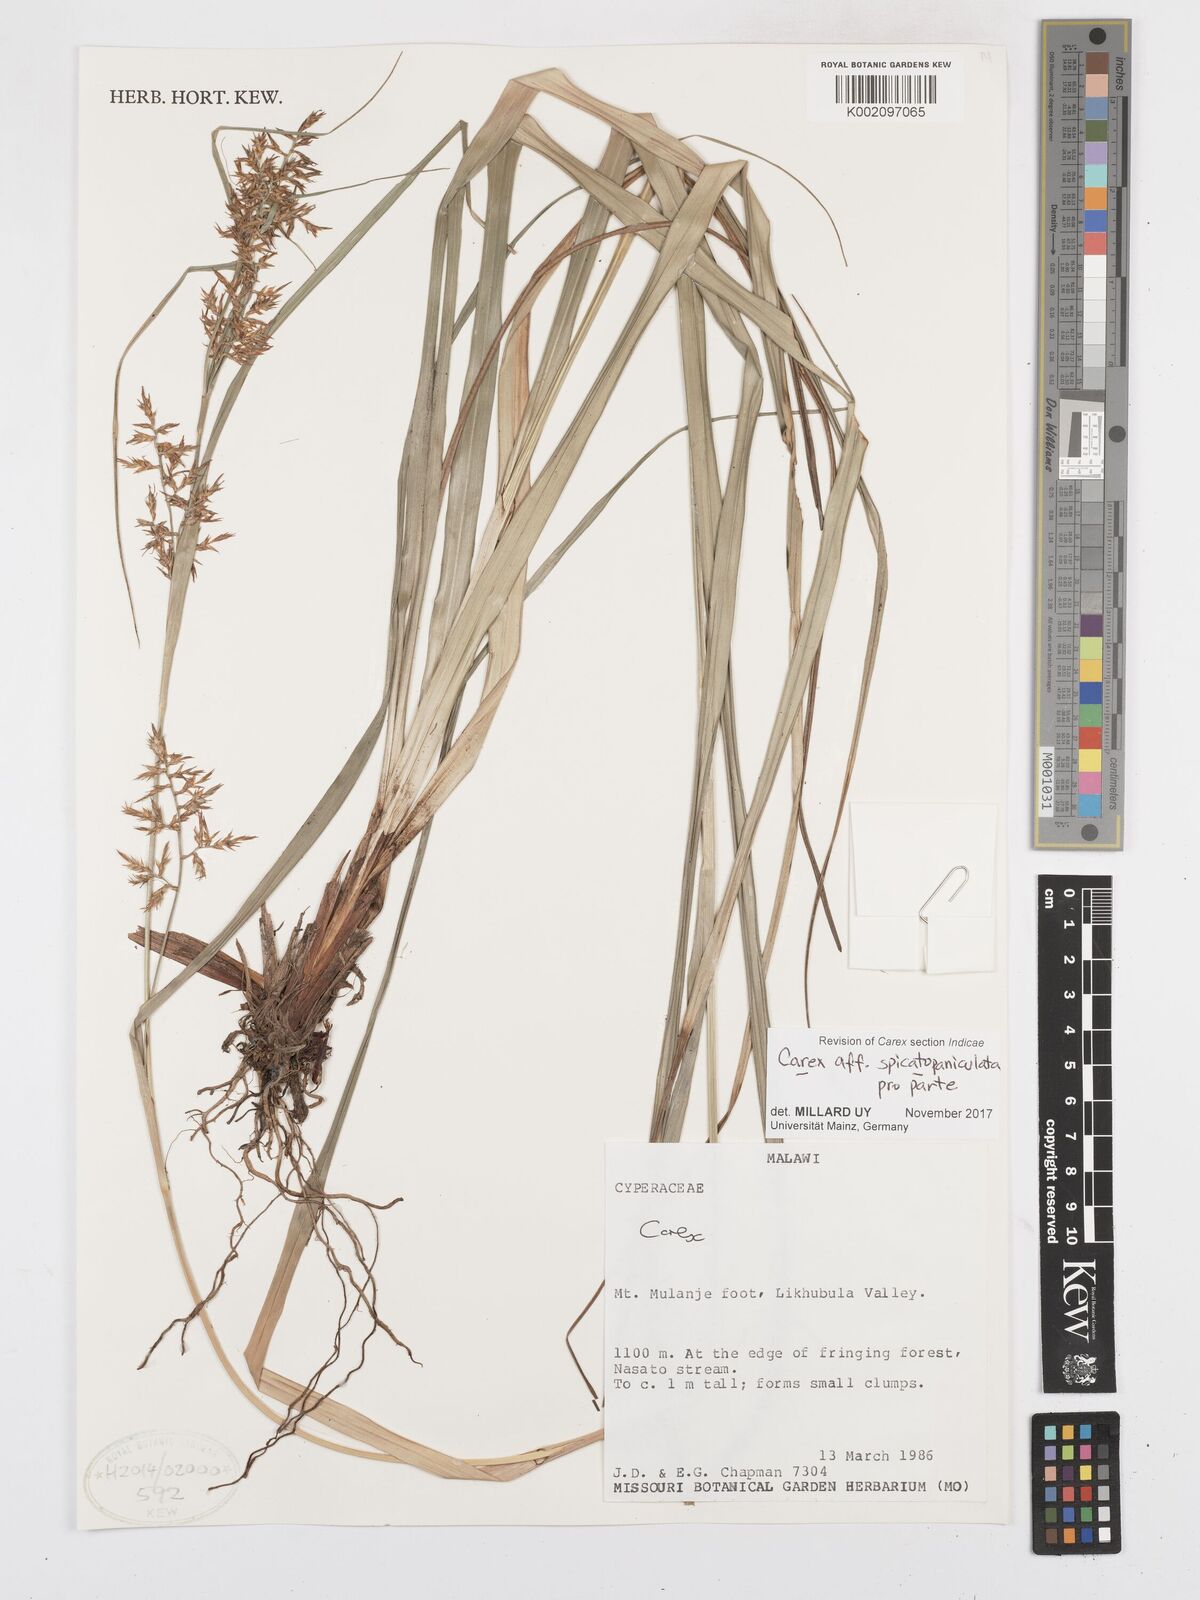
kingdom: Plantae
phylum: Tracheophyta
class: Liliopsida
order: Poales
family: Cyperaceae
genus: Carex
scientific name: Carex spicatopaniculata
